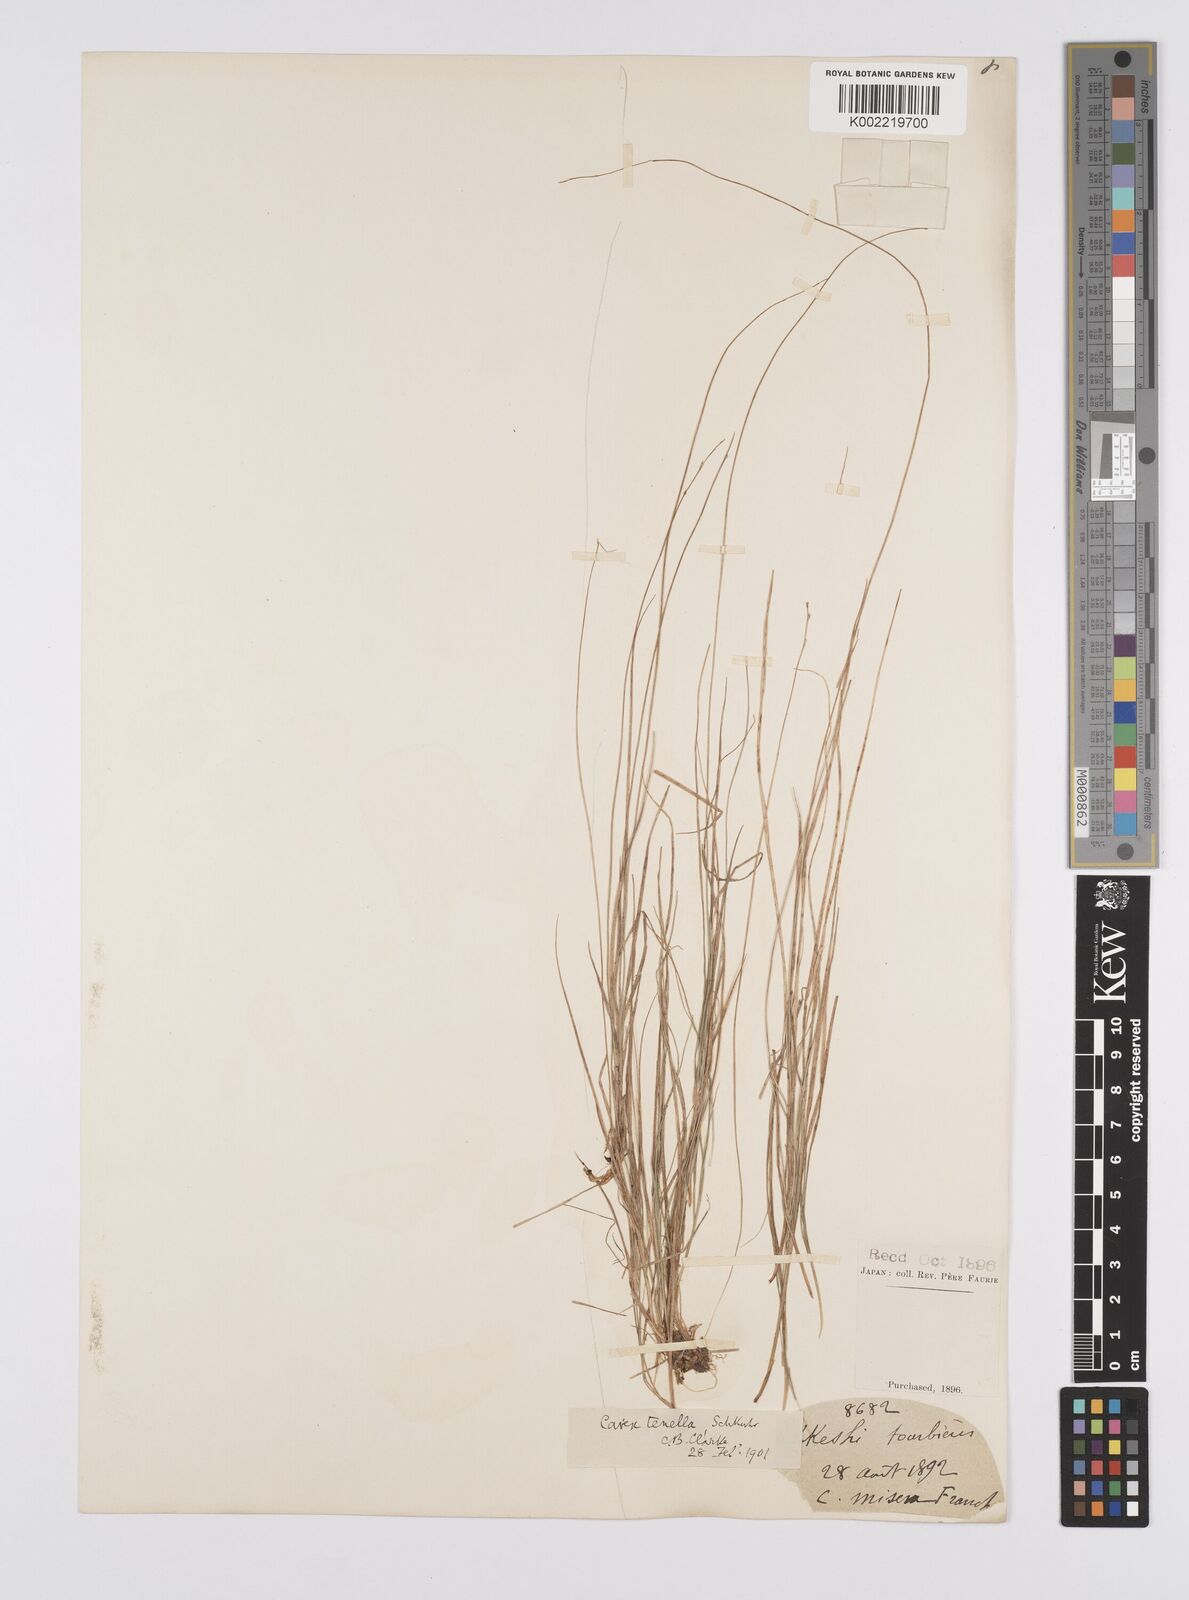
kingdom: Plantae
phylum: Tracheophyta
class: Liliopsida
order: Poales
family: Cyperaceae
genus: Carex
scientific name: Carex disperma
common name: Short-leaved sedge
